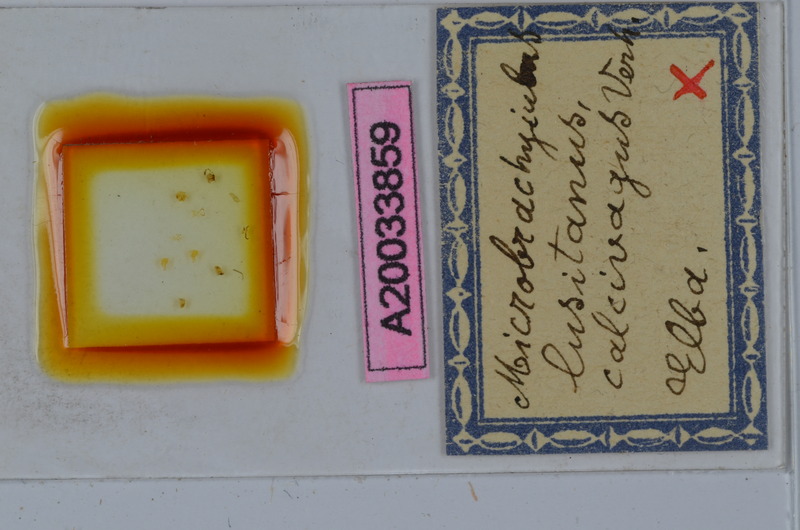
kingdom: Animalia
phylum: Arthropoda
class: Diplopoda
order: Julida
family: Julidae
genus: Brachyiulus
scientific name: Brachyiulus lusitanus
